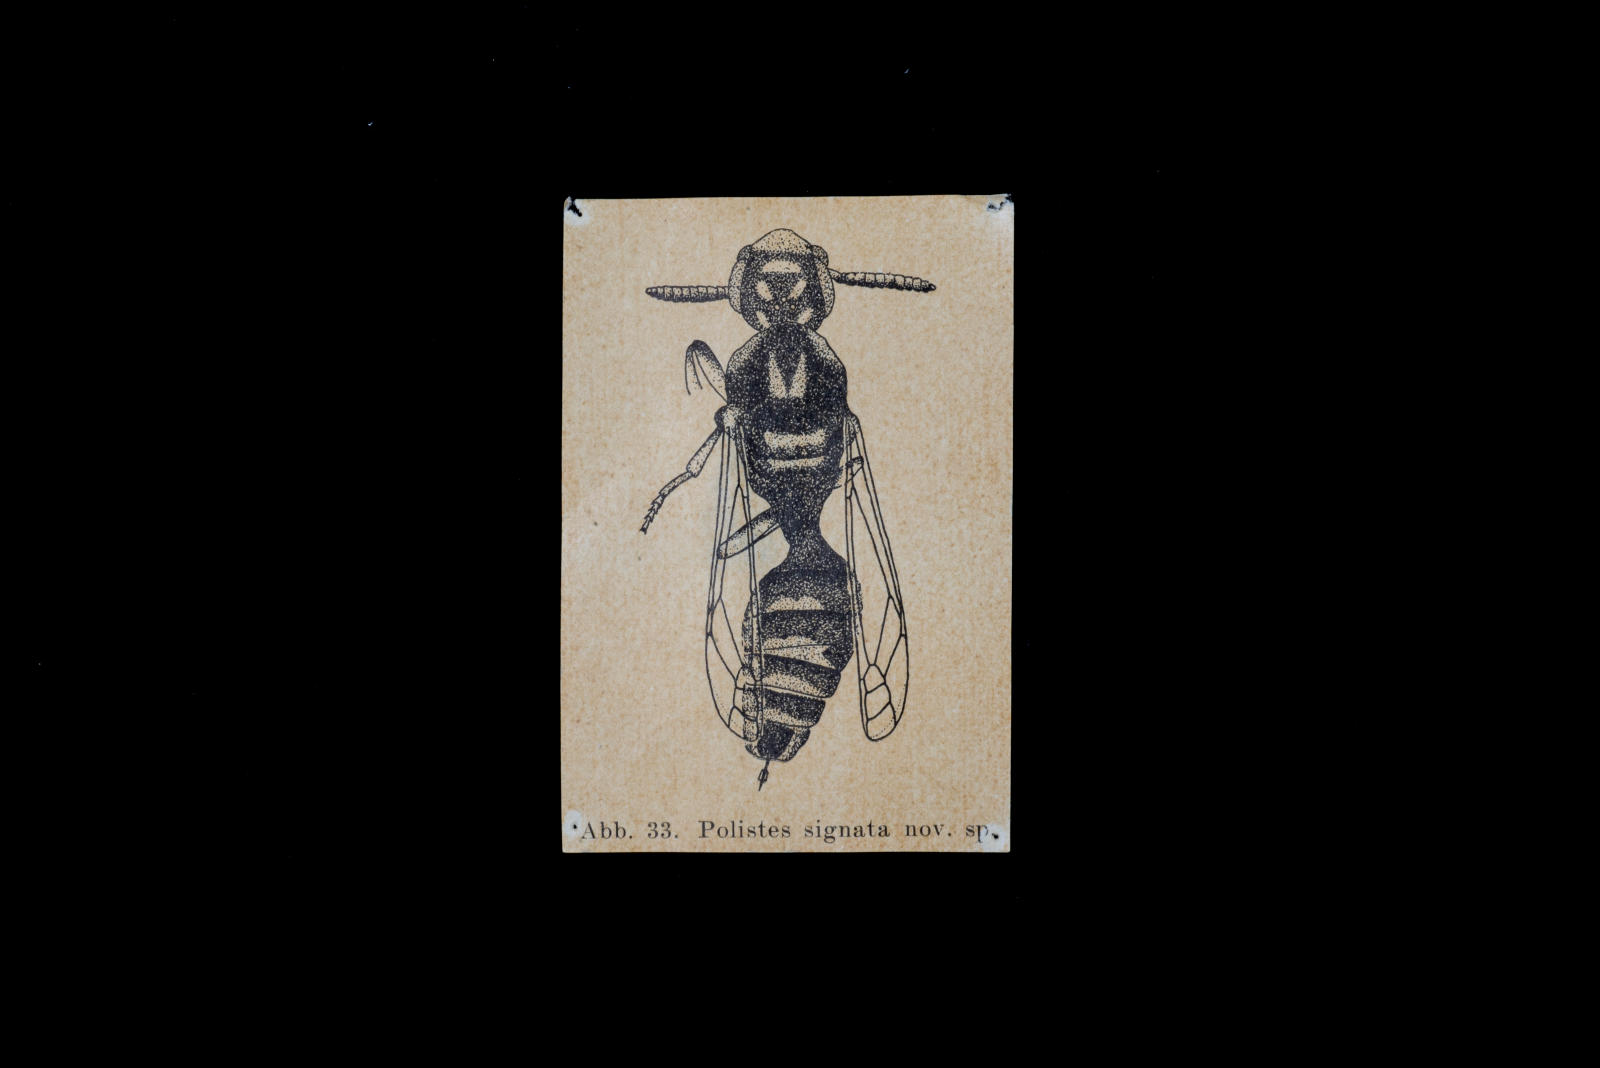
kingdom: Animalia
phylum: Arthropoda
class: Insecta
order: Hymenoptera
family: Eumenidae
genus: Polistes
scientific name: Polistes signatus
